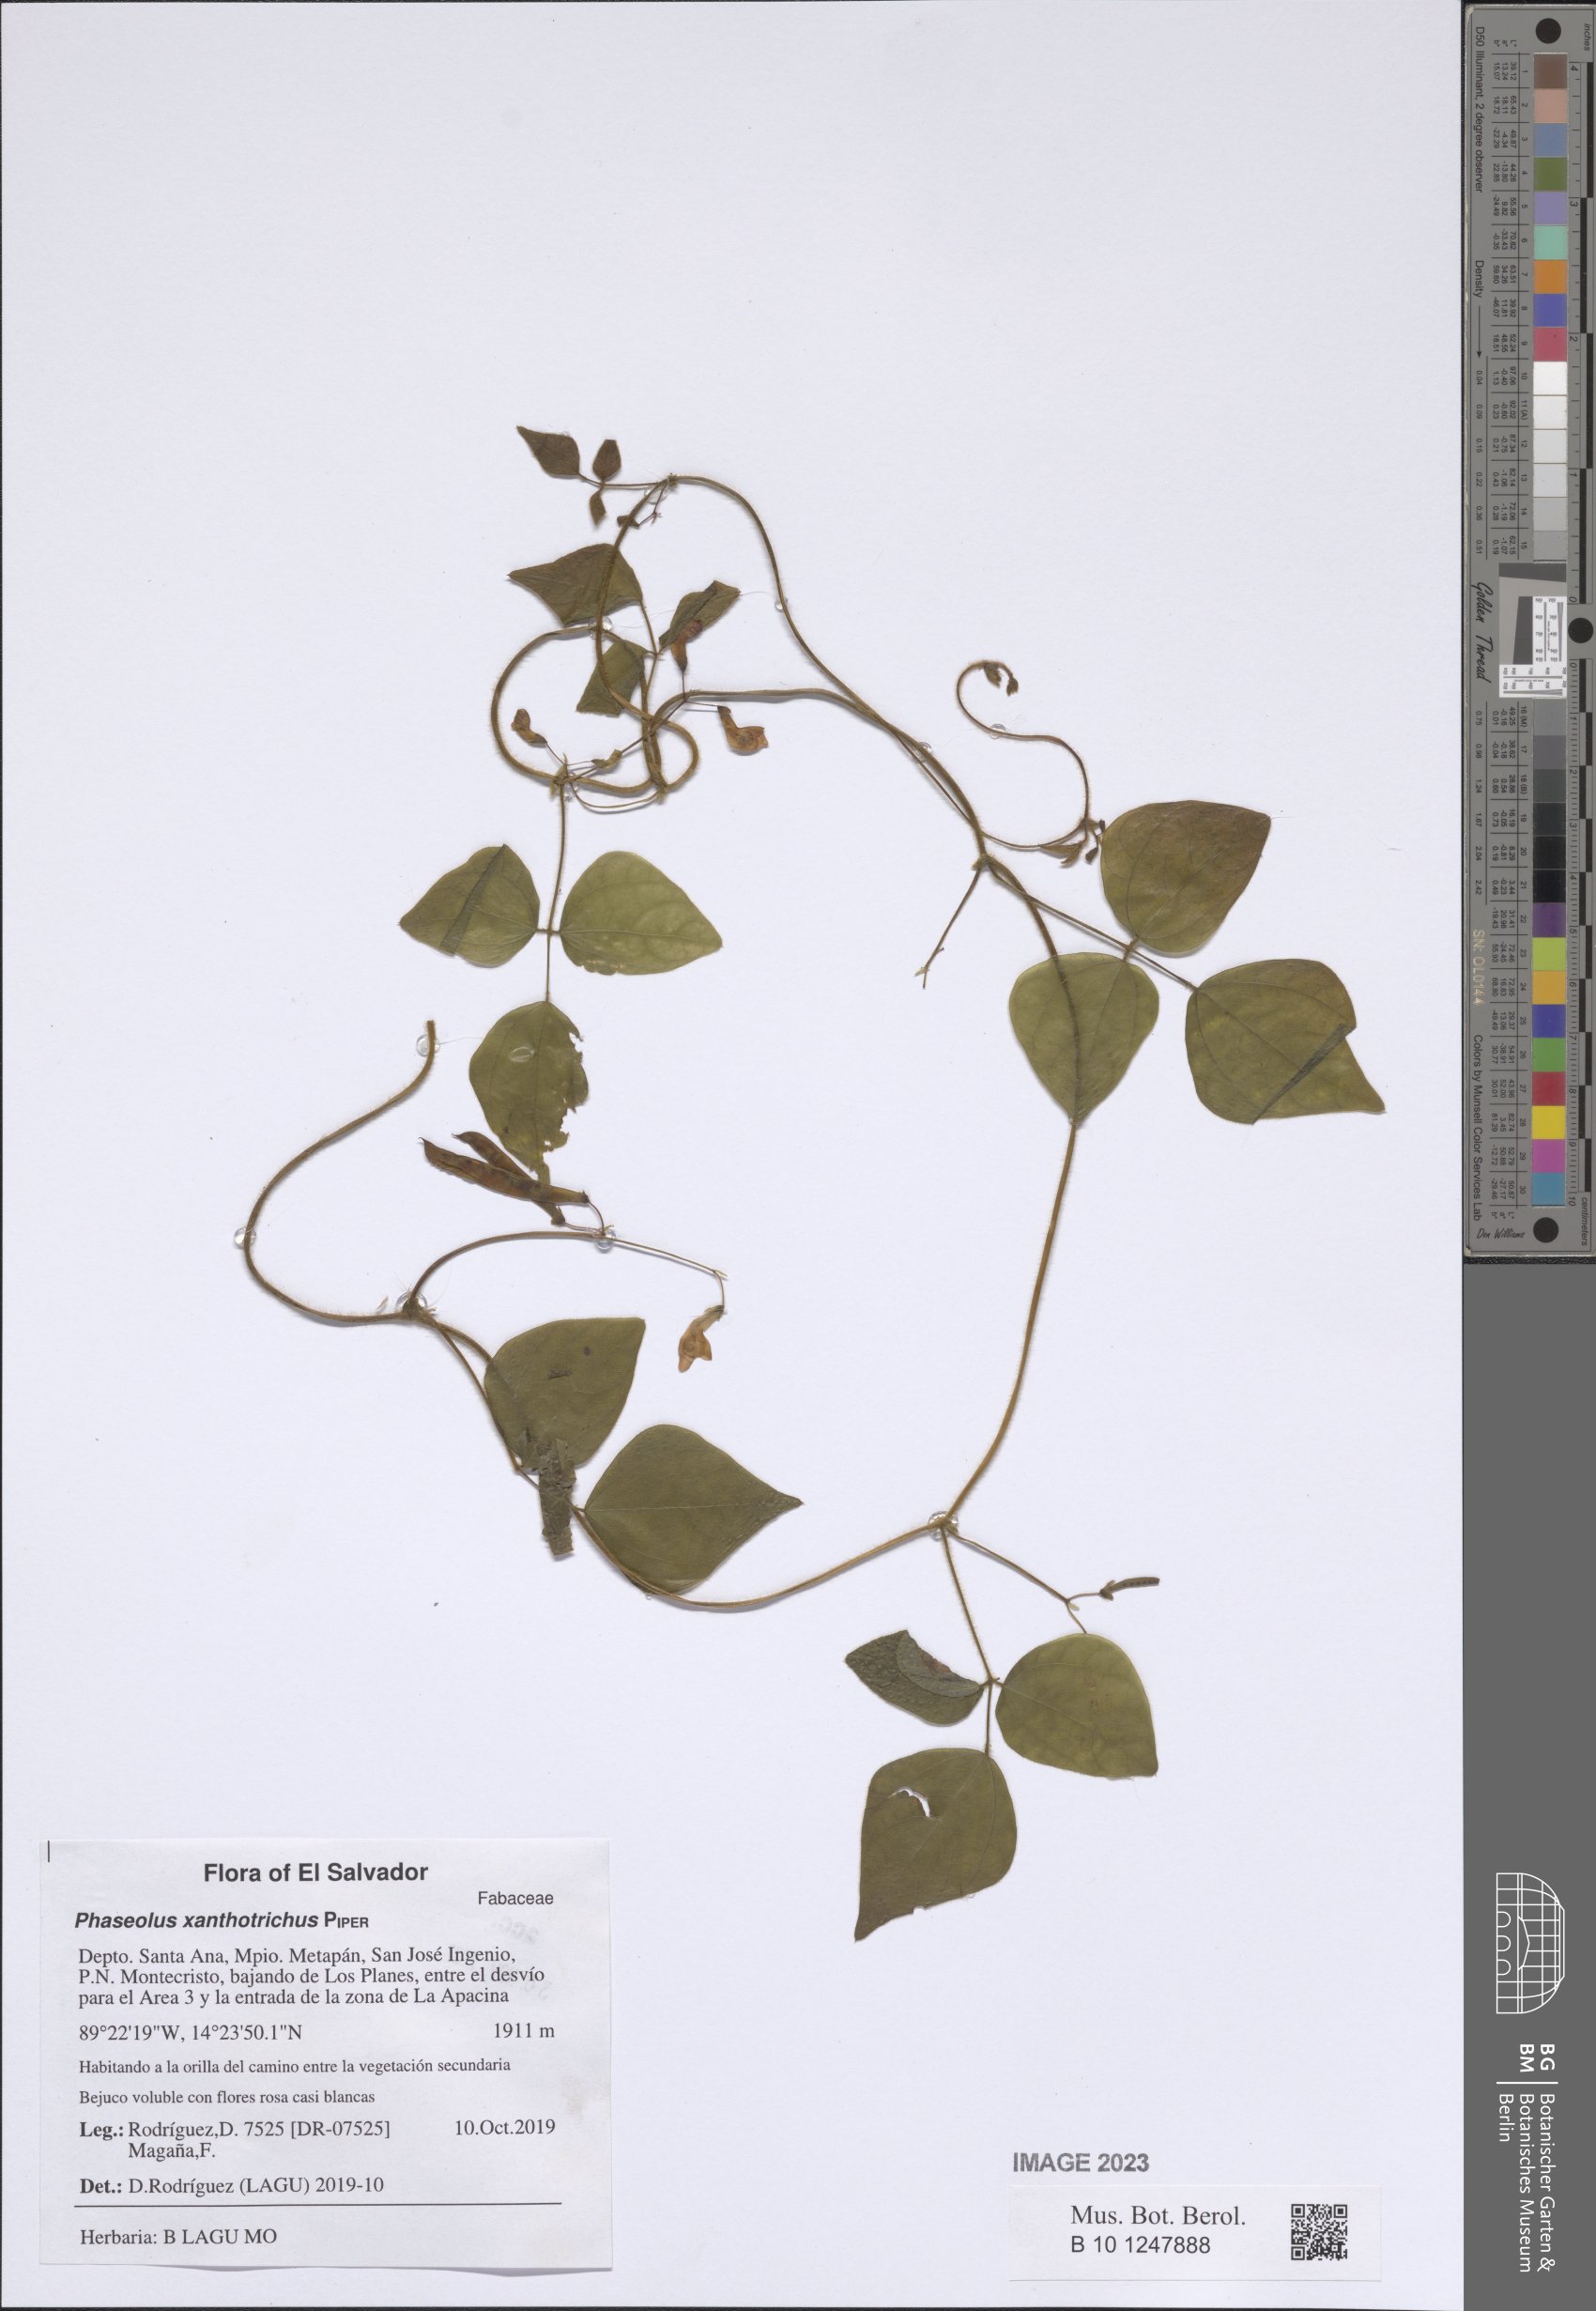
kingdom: Plantae
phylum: Tracheophyta
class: Magnoliopsida
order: Fabales
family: Fabaceae
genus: Phaseolus
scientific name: Phaseolus xanthotrichus
